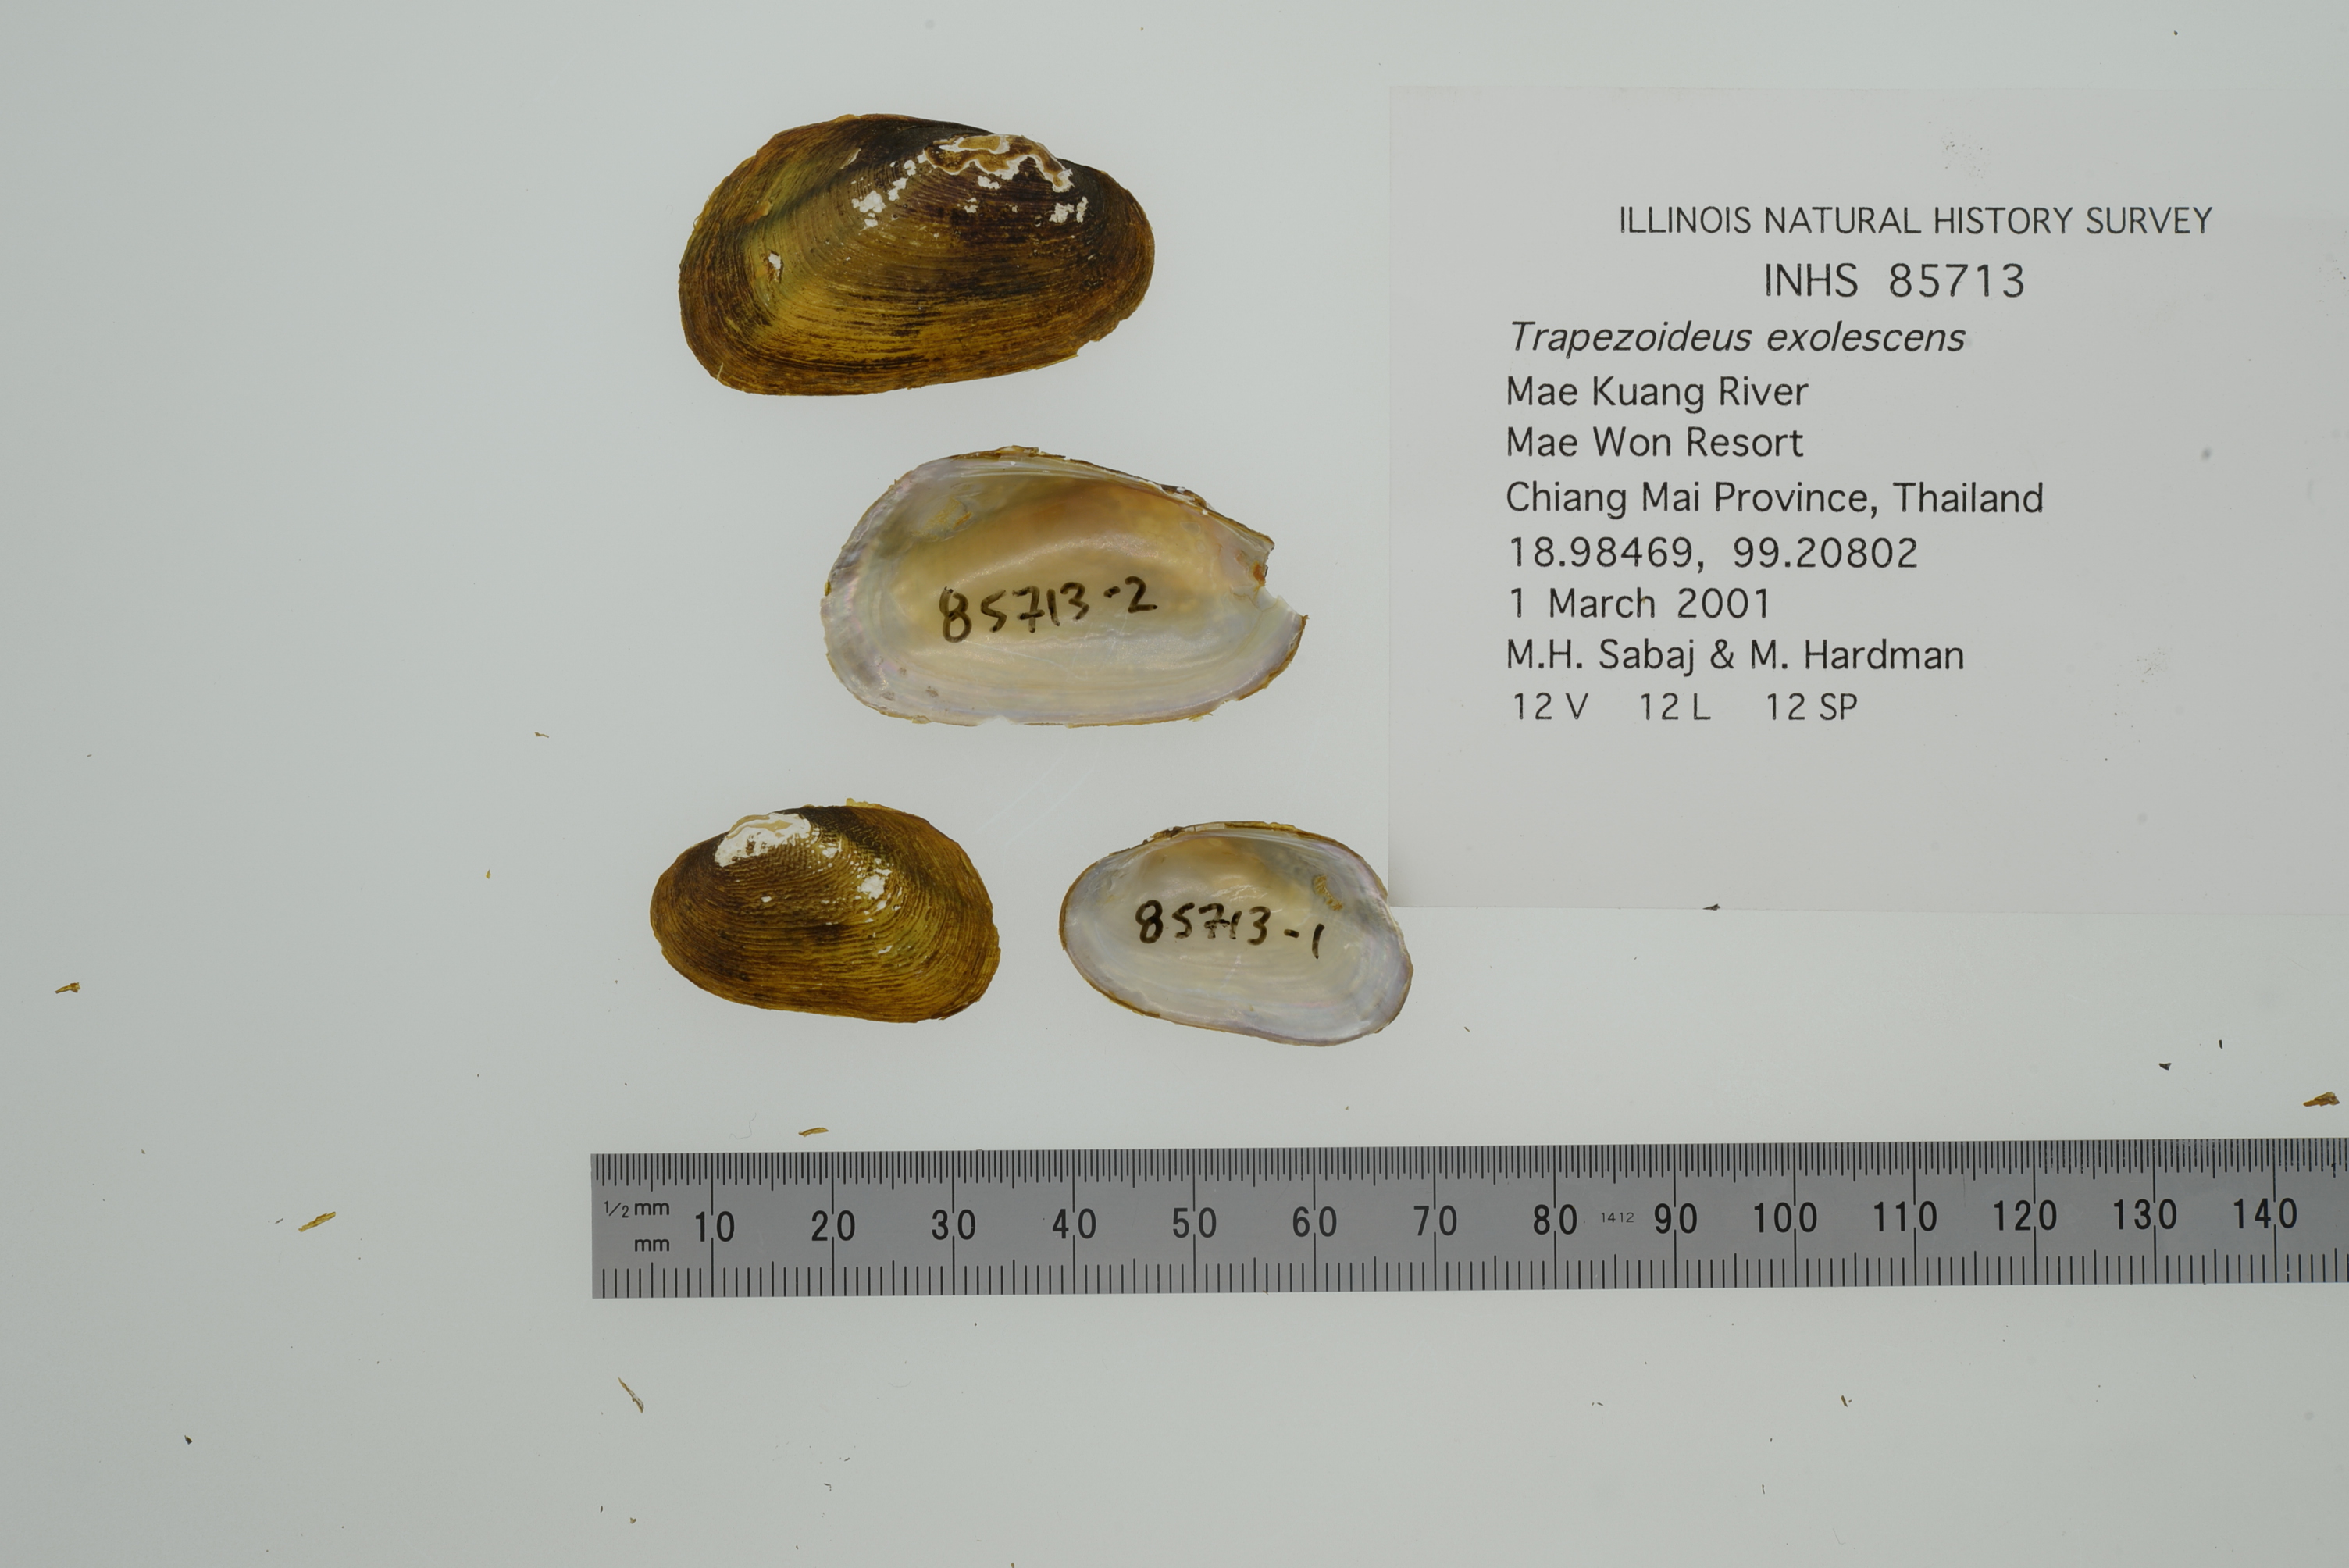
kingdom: Animalia
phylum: Mollusca
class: Bivalvia
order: Unionida
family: Unionidae
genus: Lens
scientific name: Lens
